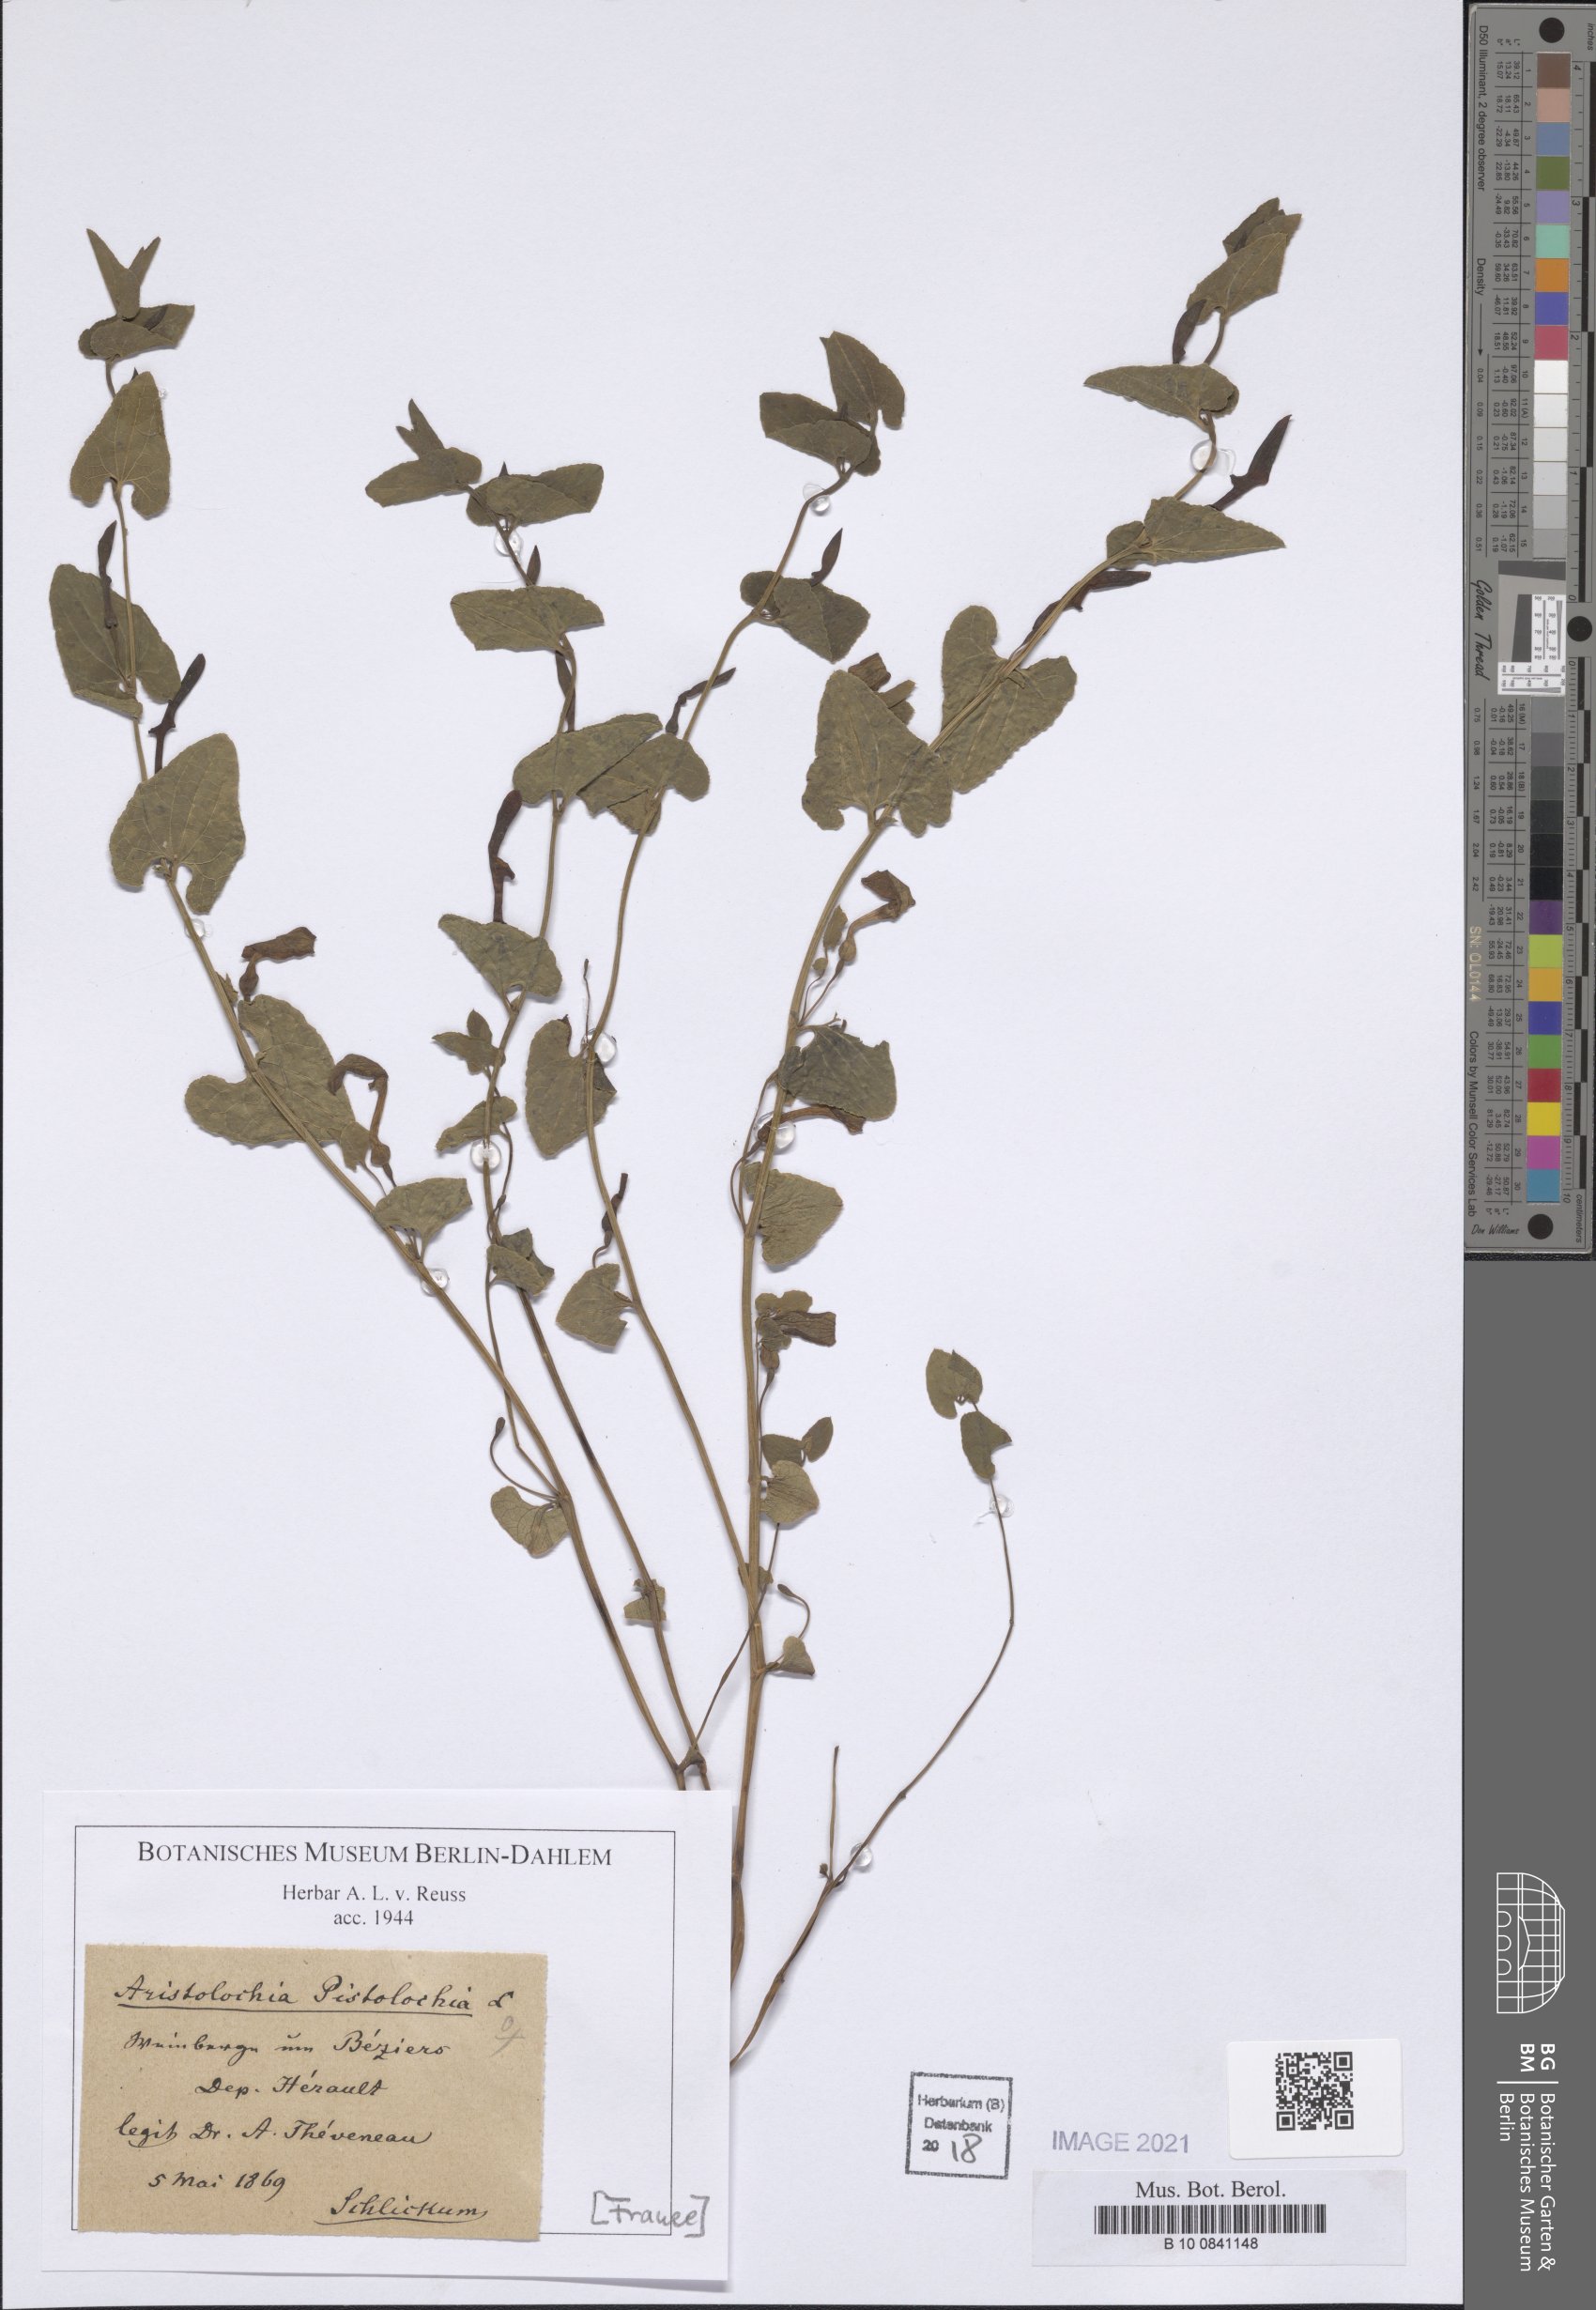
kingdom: Plantae
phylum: Tracheophyta
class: Magnoliopsida
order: Piperales
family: Aristolochiaceae
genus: Aristolochia
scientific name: Aristolochia pistolochia
